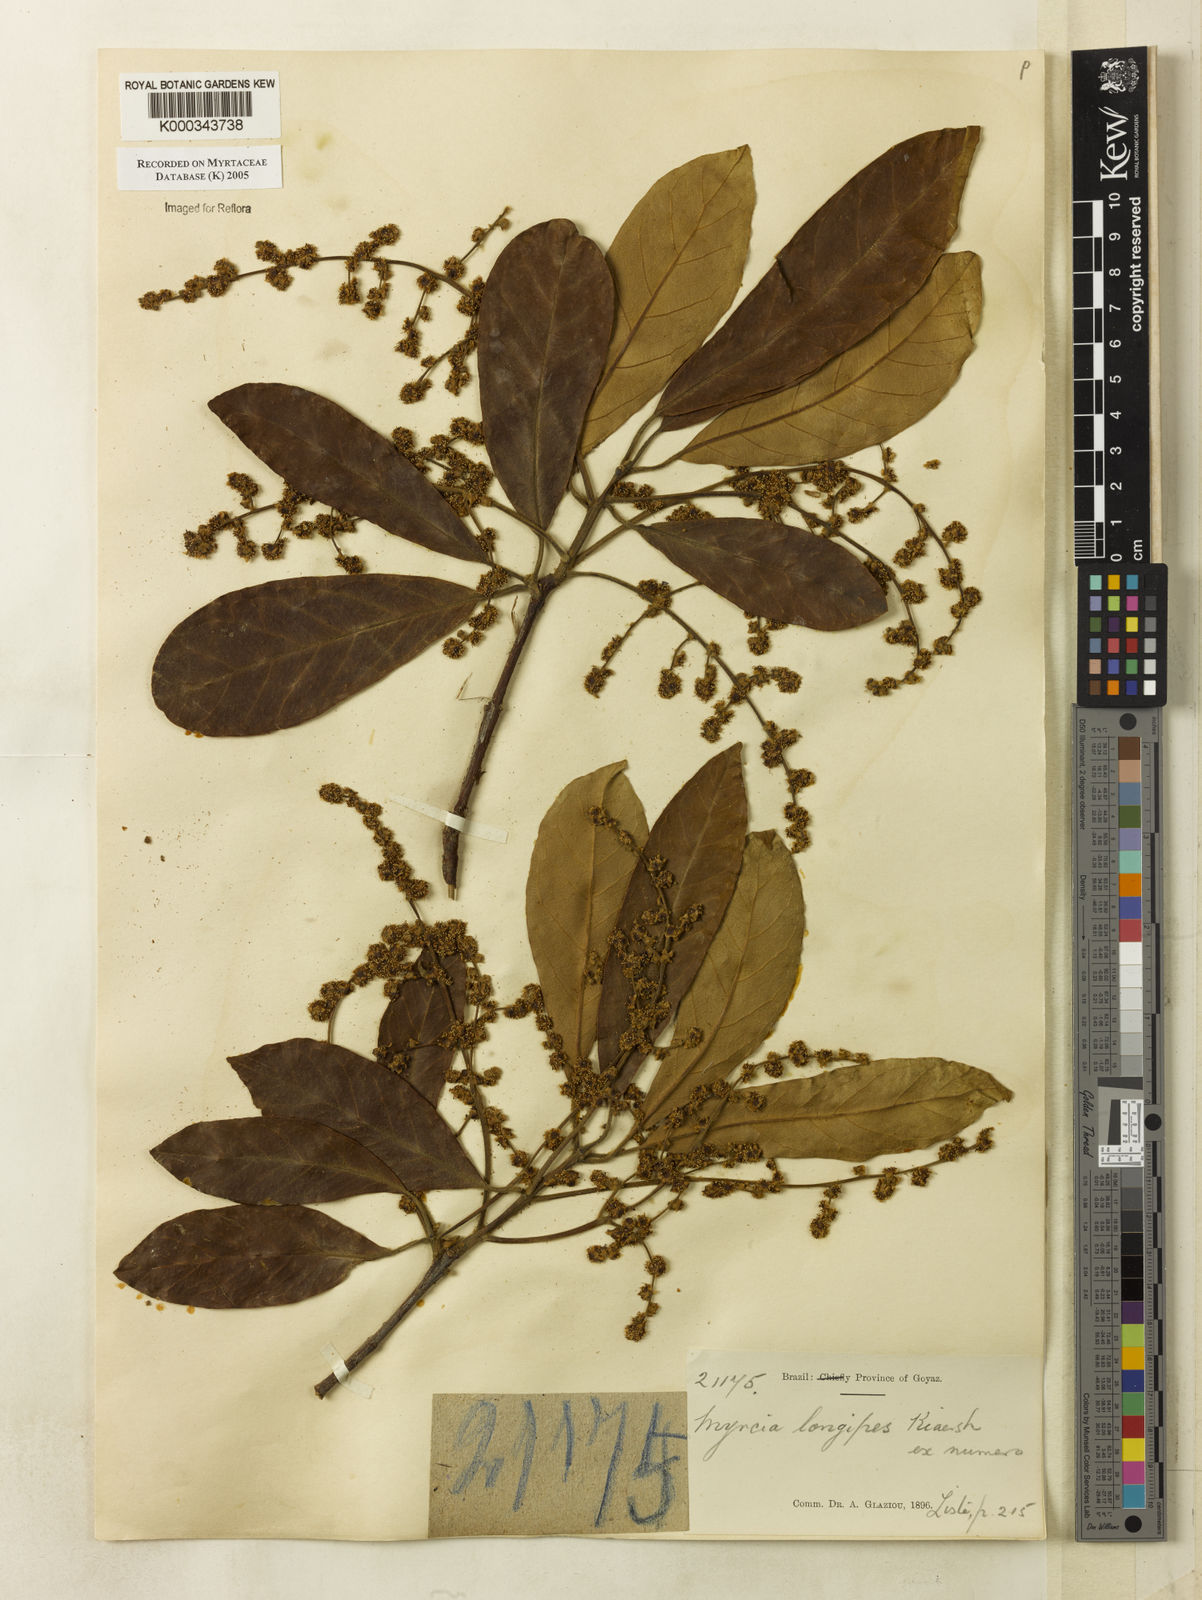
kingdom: Plantae
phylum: Tracheophyta
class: Magnoliopsida
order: Myrtales
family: Myrtaceae
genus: Myrcia
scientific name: Myrcia tomentosa
